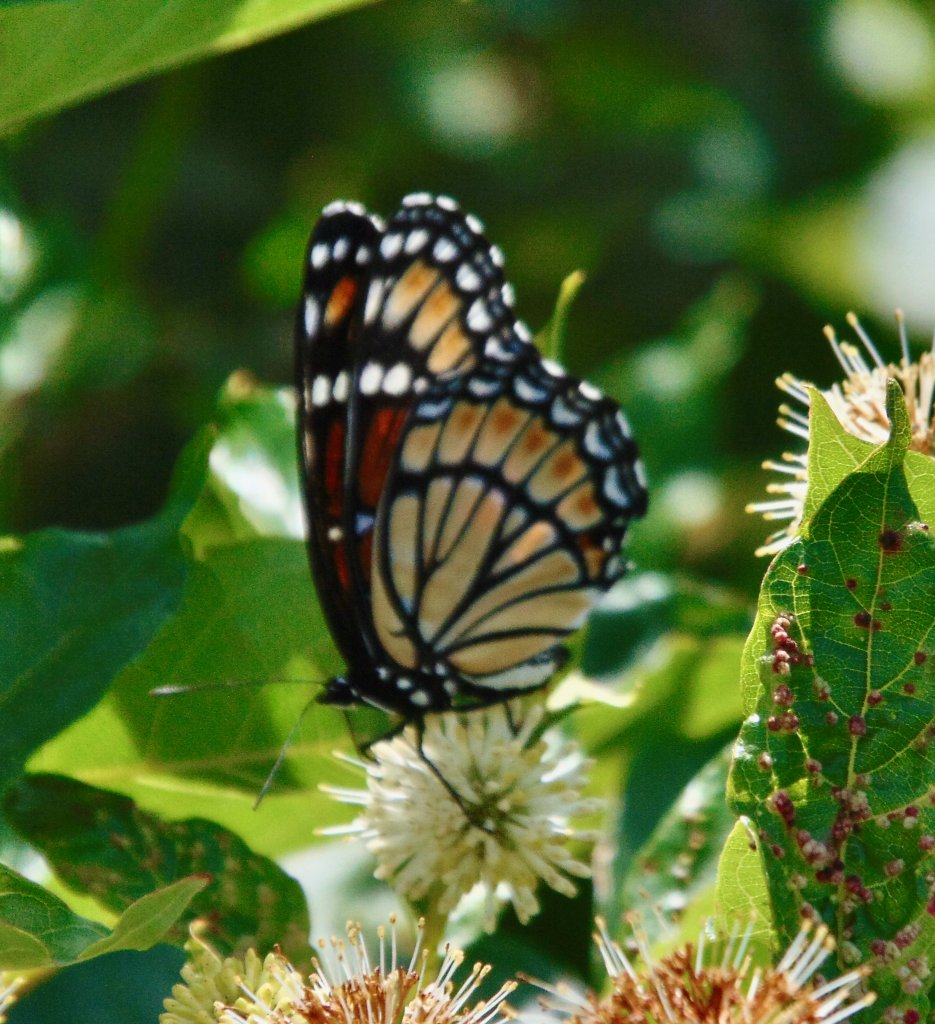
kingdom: Animalia
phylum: Arthropoda
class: Insecta
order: Lepidoptera
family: Nymphalidae
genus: Limenitis
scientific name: Limenitis archippus
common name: Viceroy
